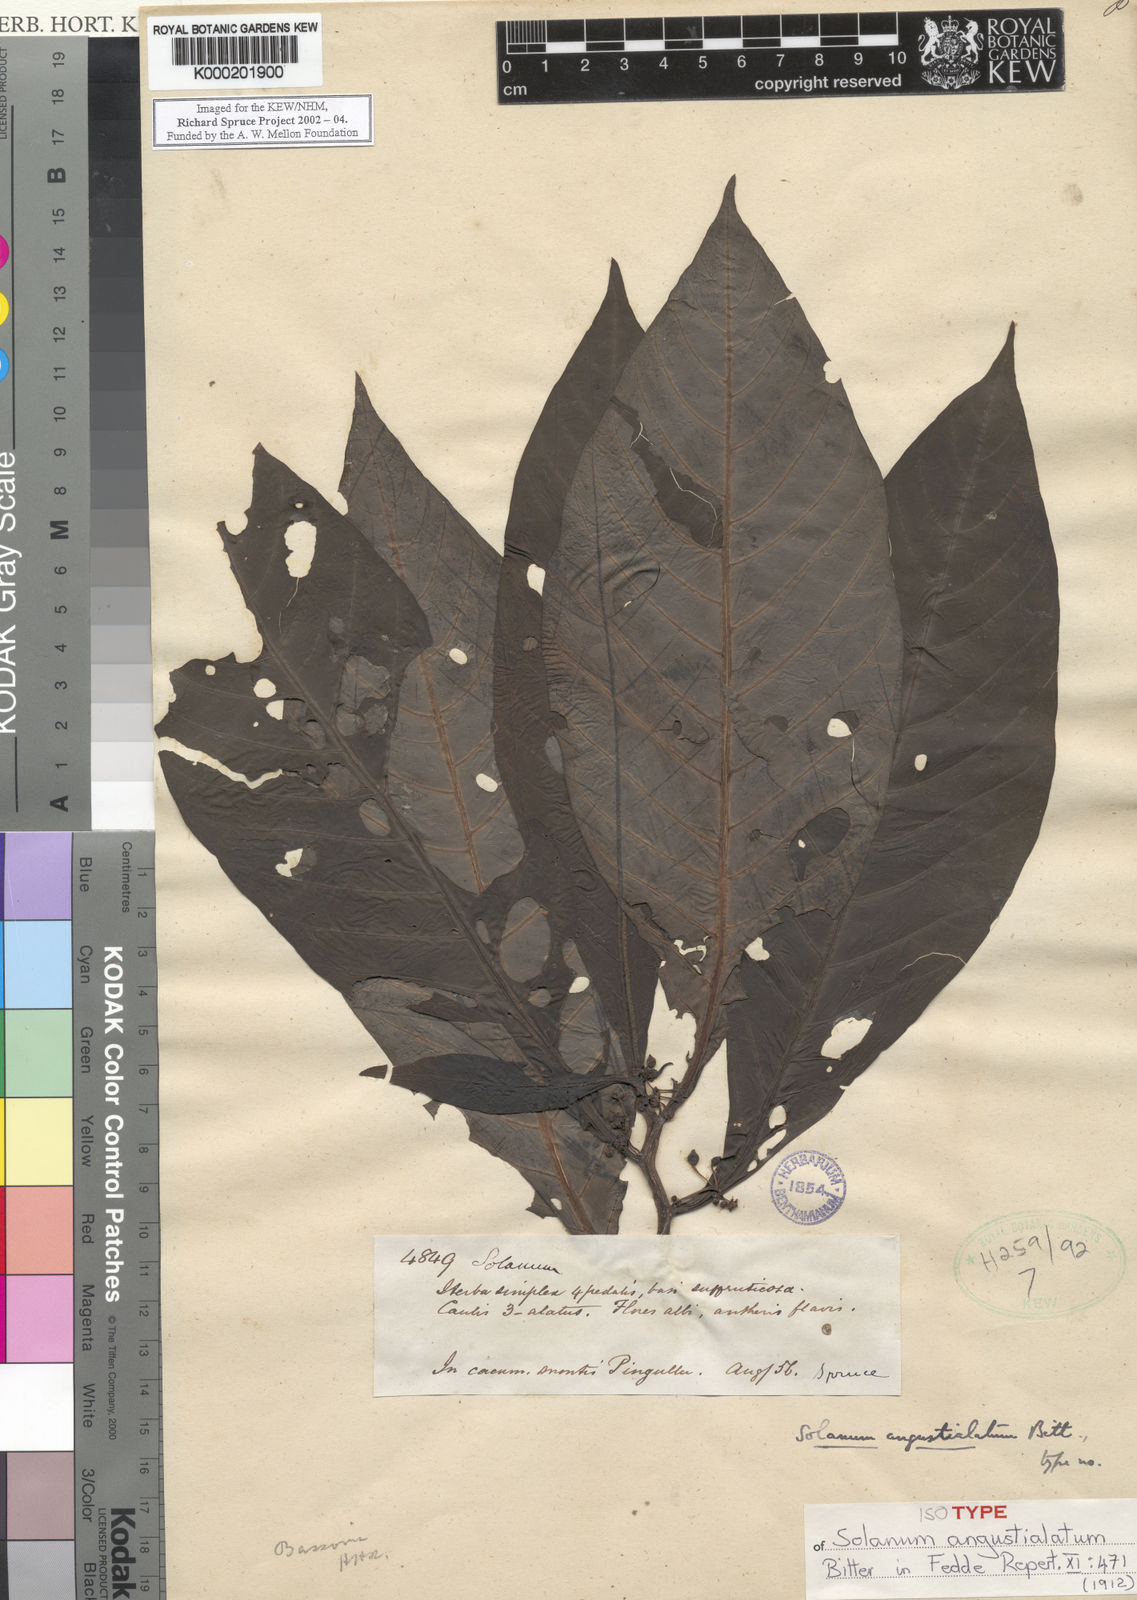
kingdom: Plantae
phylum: Tracheophyta
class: Magnoliopsida
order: Solanales
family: Solanaceae
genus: Solanum
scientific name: Solanum angustialatum
